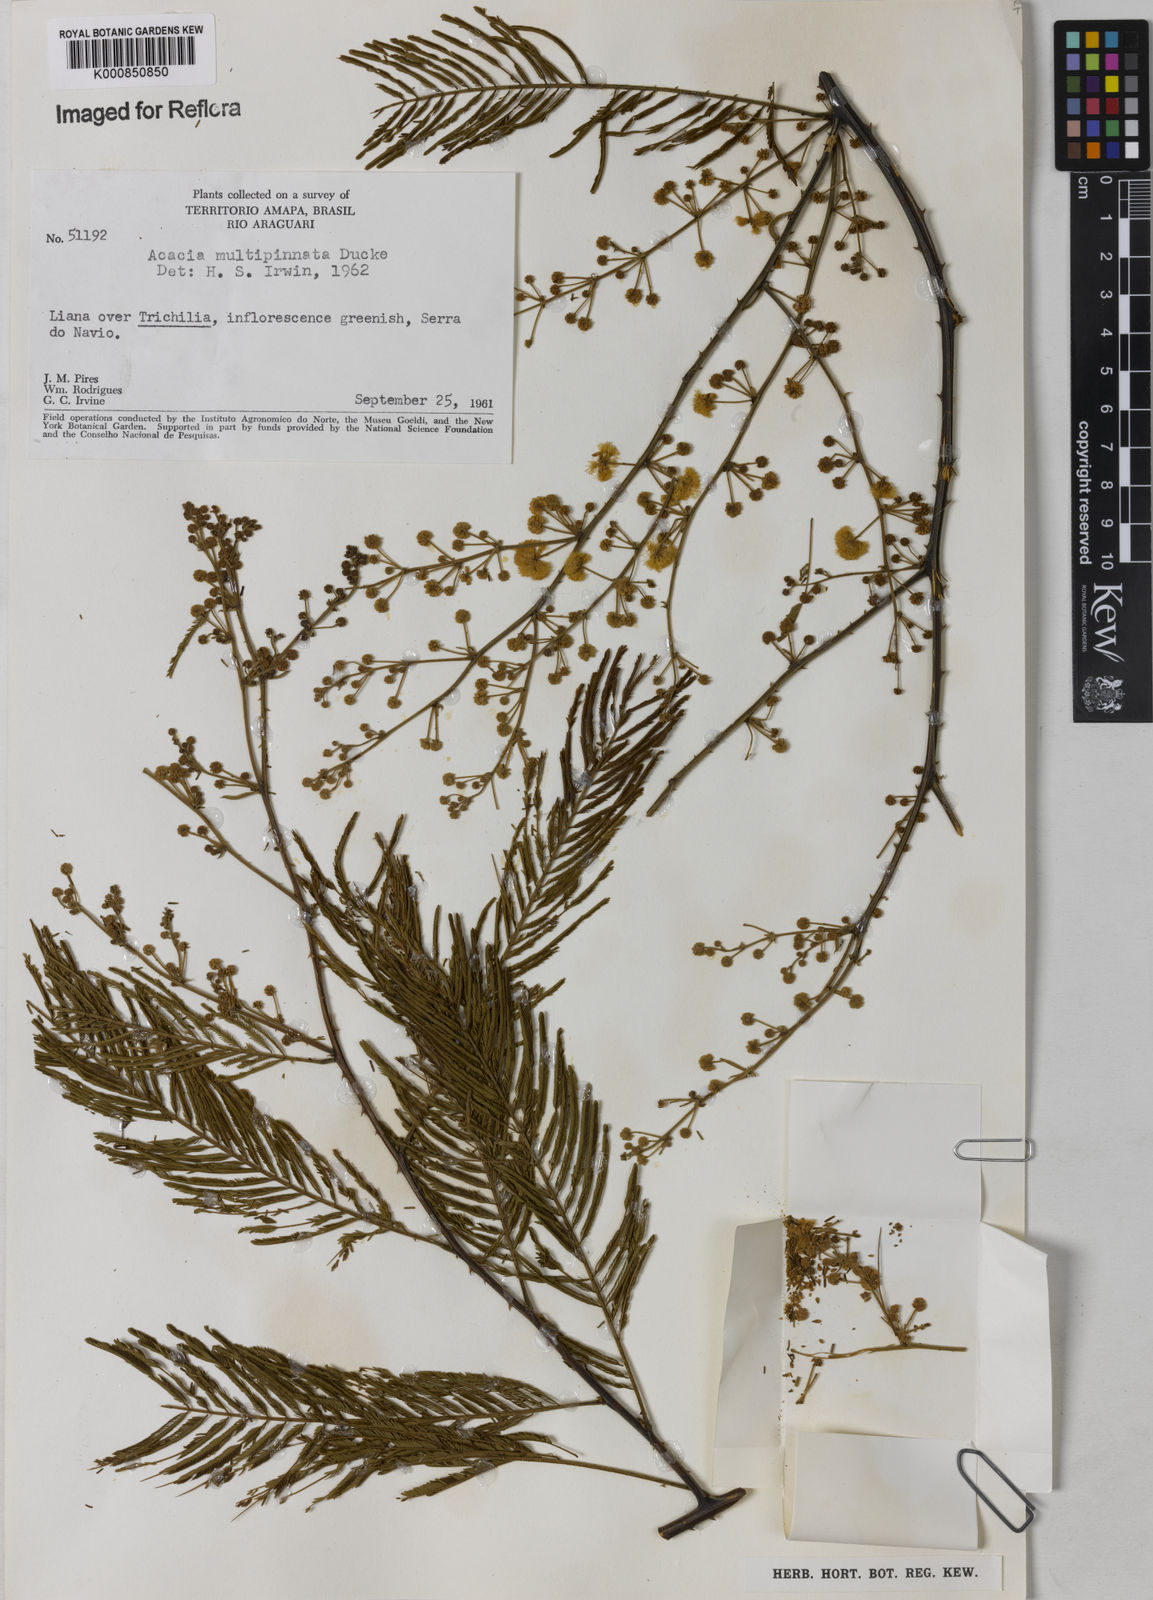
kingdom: Plantae
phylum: Tracheophyta
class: Magnoliopsida
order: Fabales
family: Fabaceae
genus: Senegalia
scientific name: Senegalia paniculata
